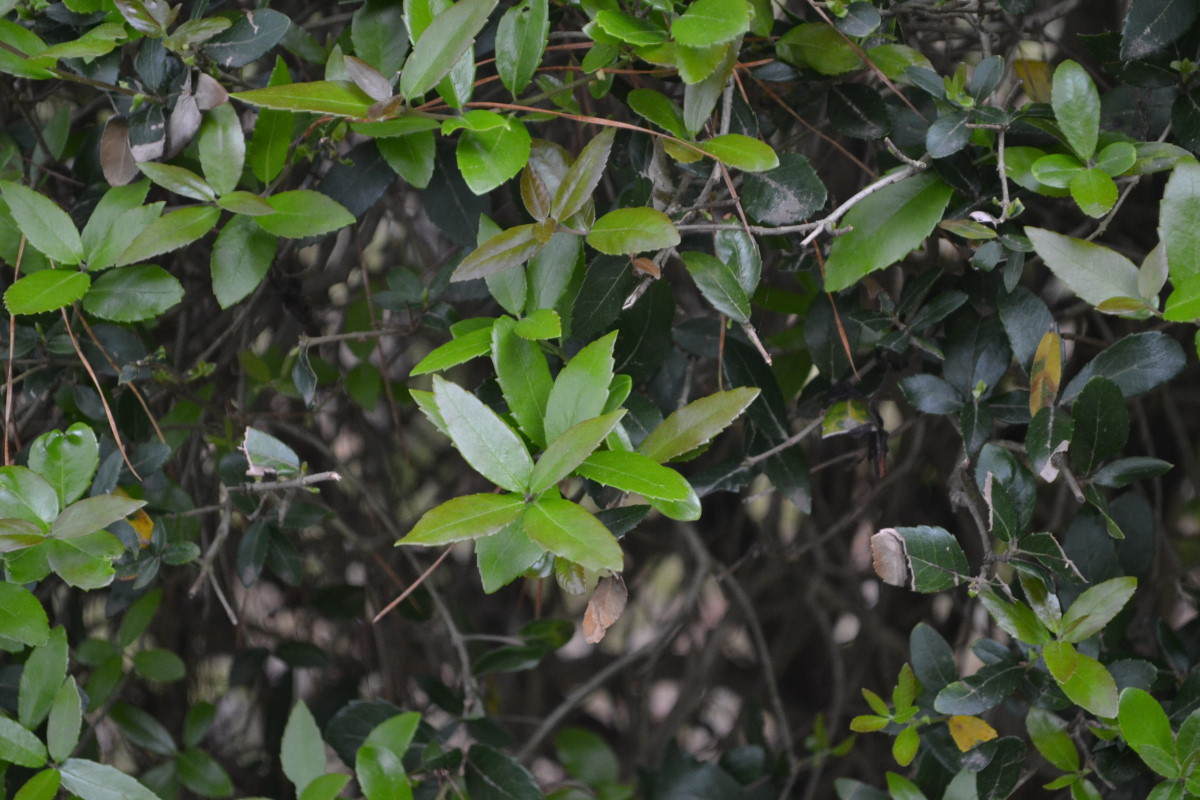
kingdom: Plantae
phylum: Tracheophyta
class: Magnoliopsida
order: Lamiales
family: Oleaceae
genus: Phillyrea
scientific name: Phillyrea angustifolia
